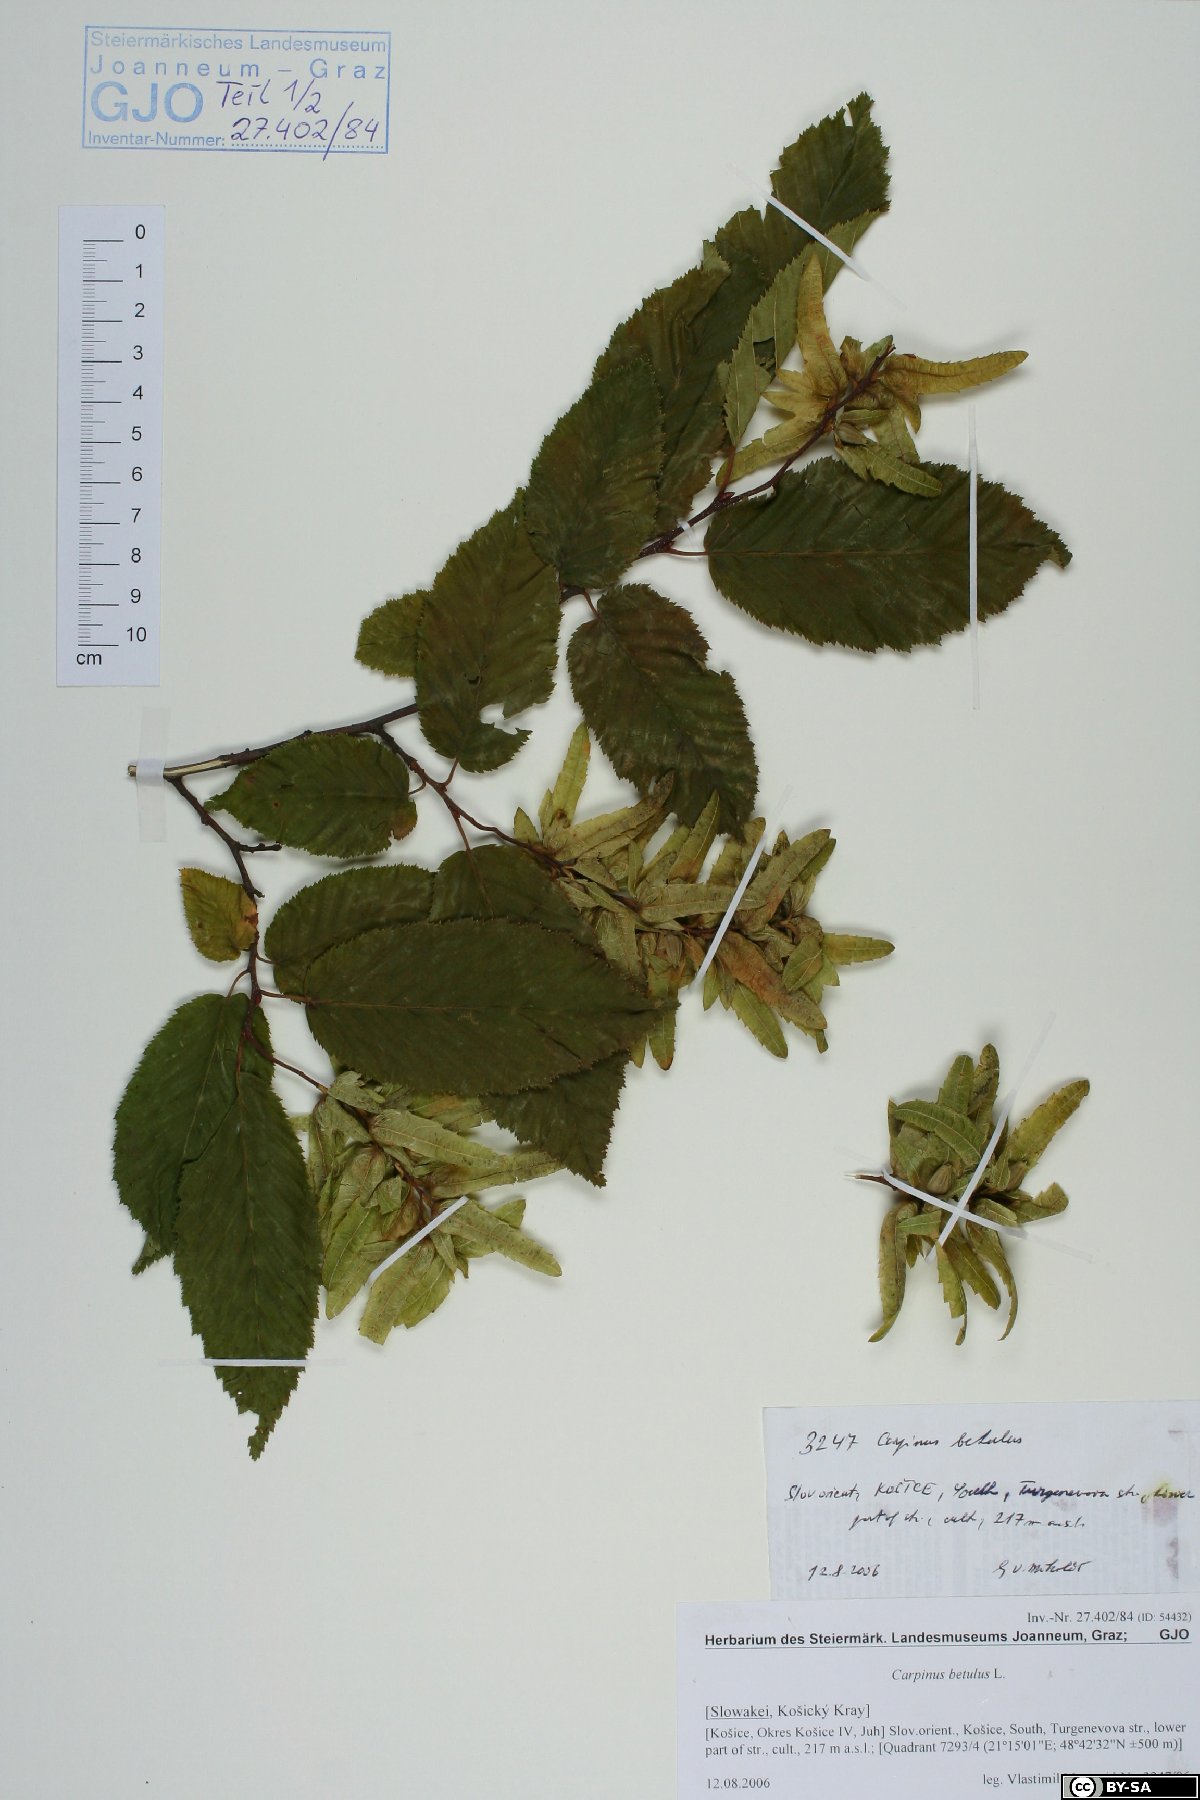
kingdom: Plantae
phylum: Tracheophyta
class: Magnoliopsida
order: Fagales
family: Betulaceae
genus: Carpinus
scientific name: Carpinus betulus
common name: Hornbeam
